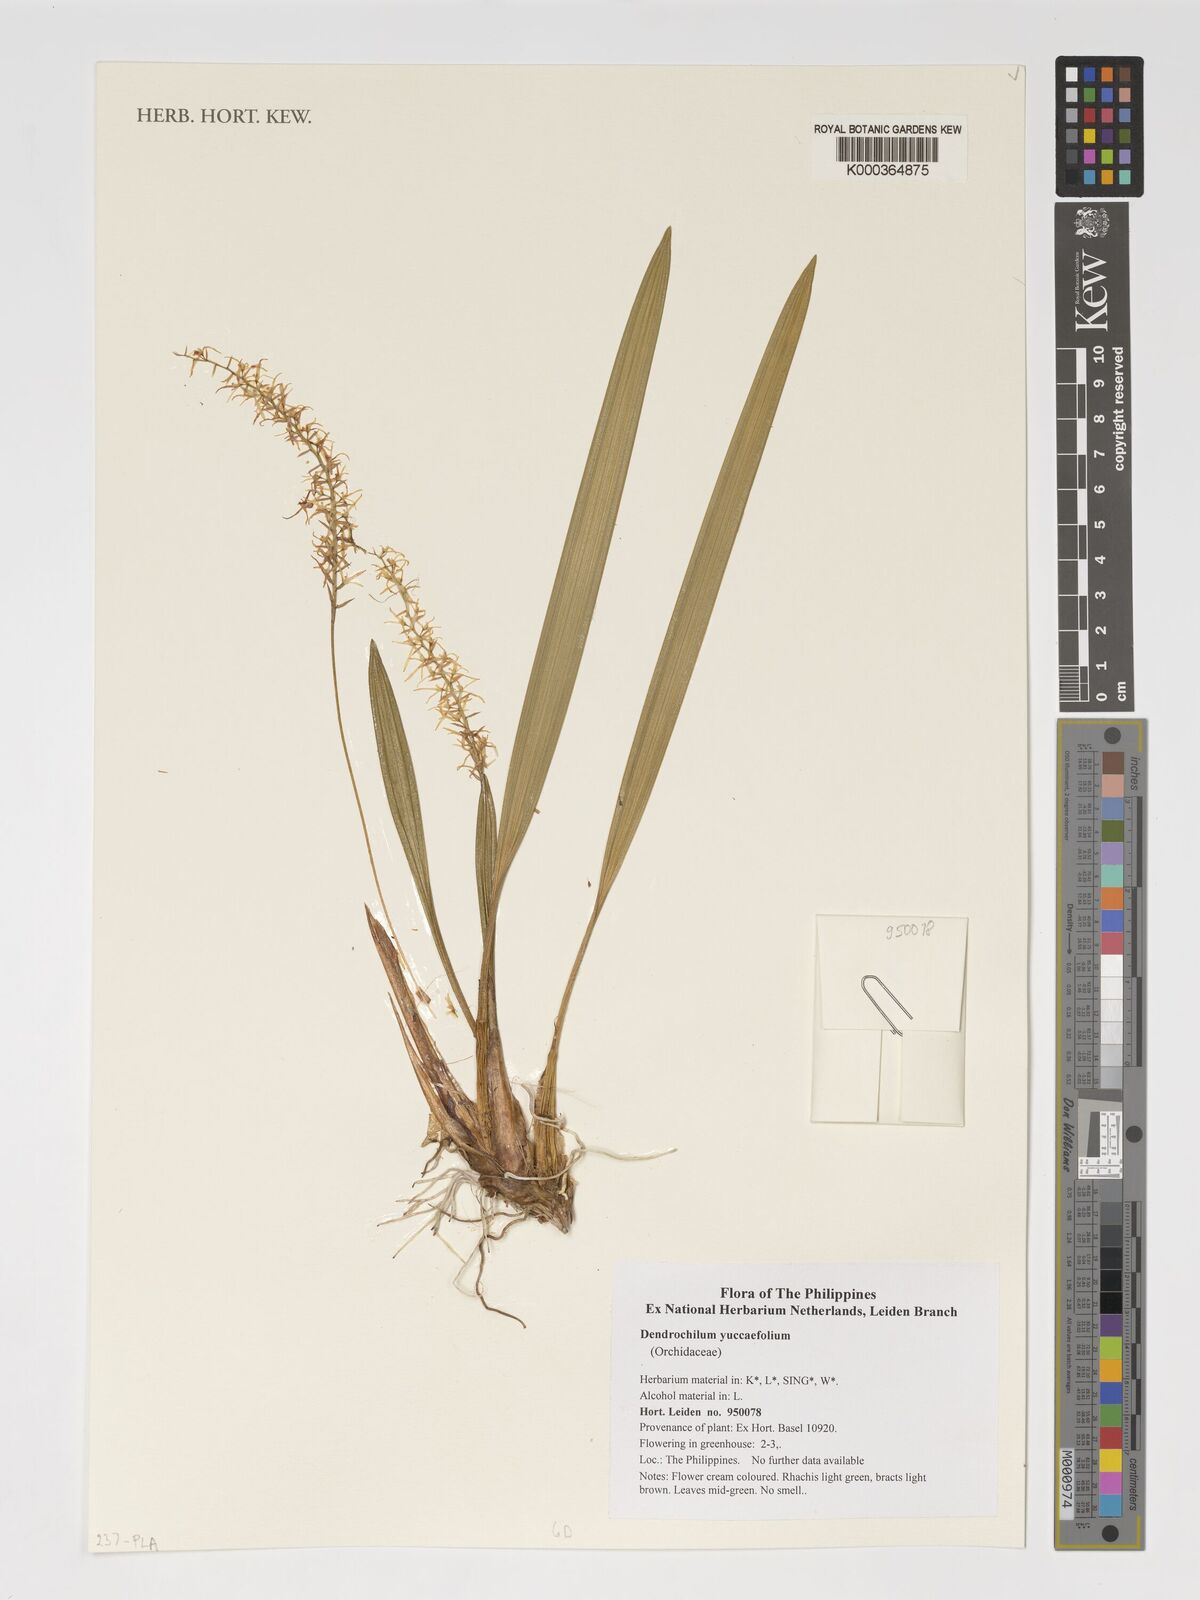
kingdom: Plantae
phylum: Tracheophyta
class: Liliopsida
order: Asparagales
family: Orchidaceae
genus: Coelogyne
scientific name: Coelogyne yuccifolia
